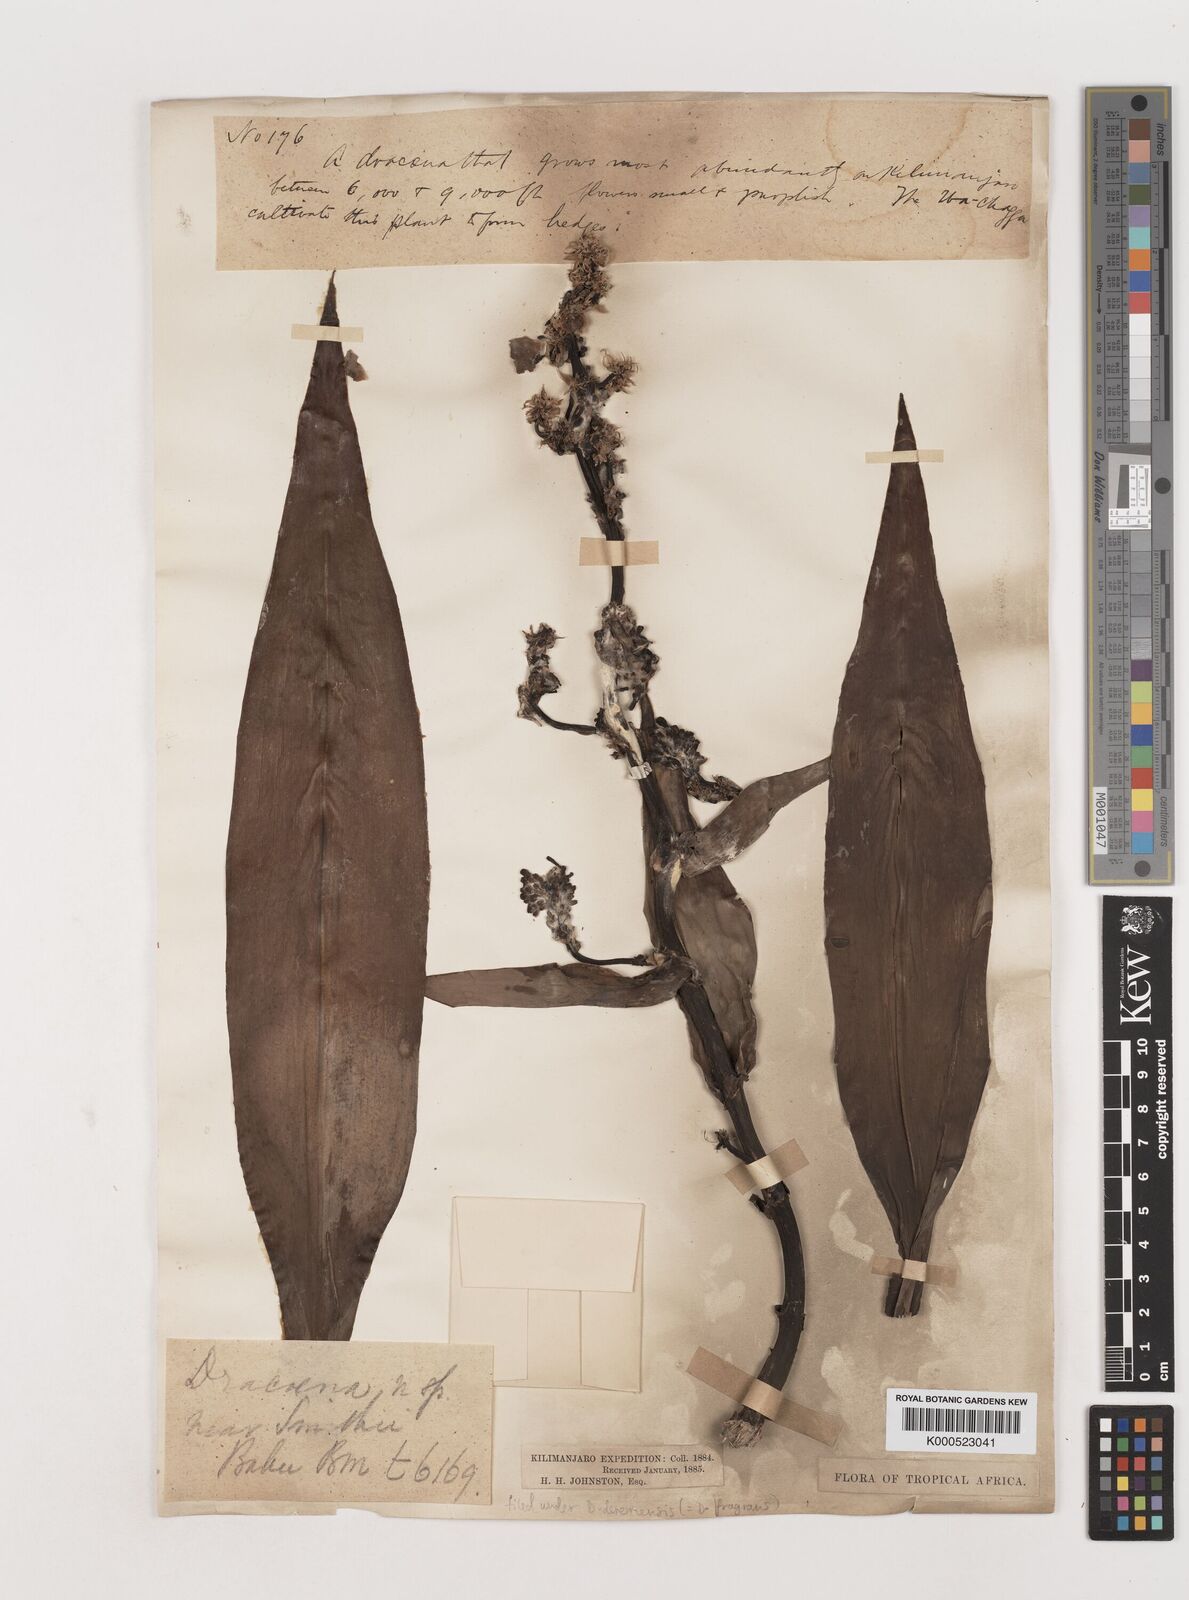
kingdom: Plantae
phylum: Tracheophyta
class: Liliopsida
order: Asparagales
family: Asparagaceae
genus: Dracaena
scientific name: Dracaena fragrans
